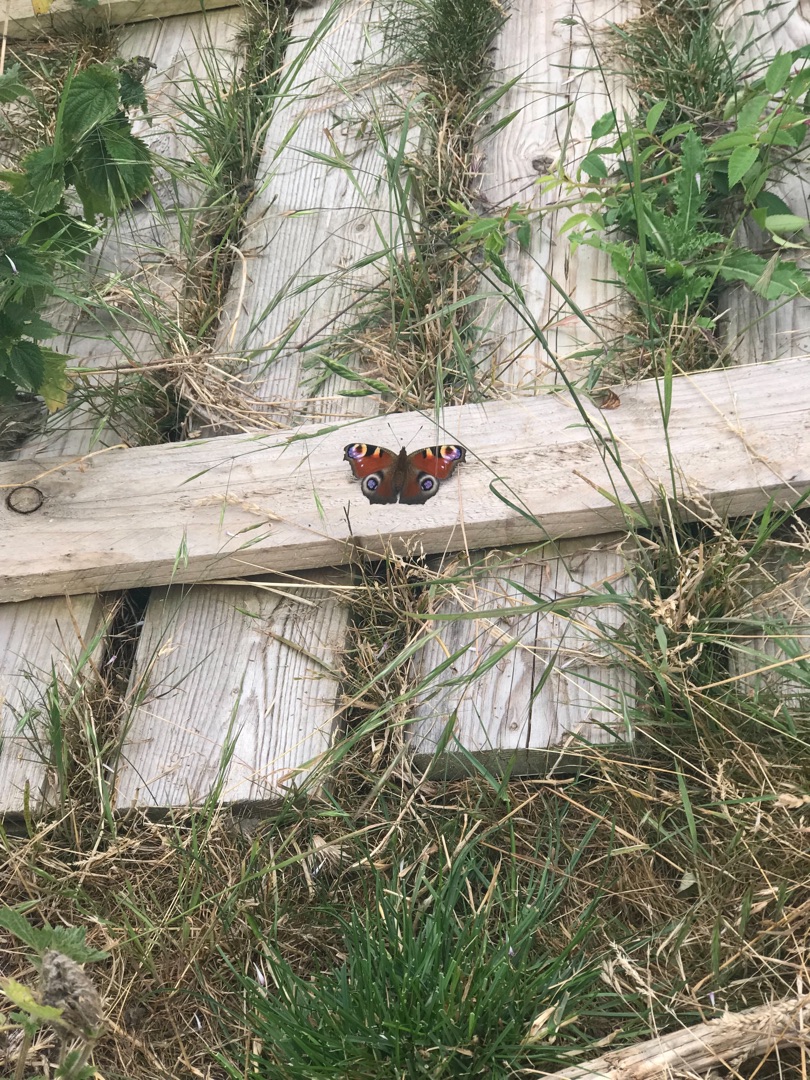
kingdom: Animalia
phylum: Arthropoda
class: Insecta
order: Lepidoptera
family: Nymphalidae
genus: Aglais
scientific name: Aglais io
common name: Dagpåfugleøje
